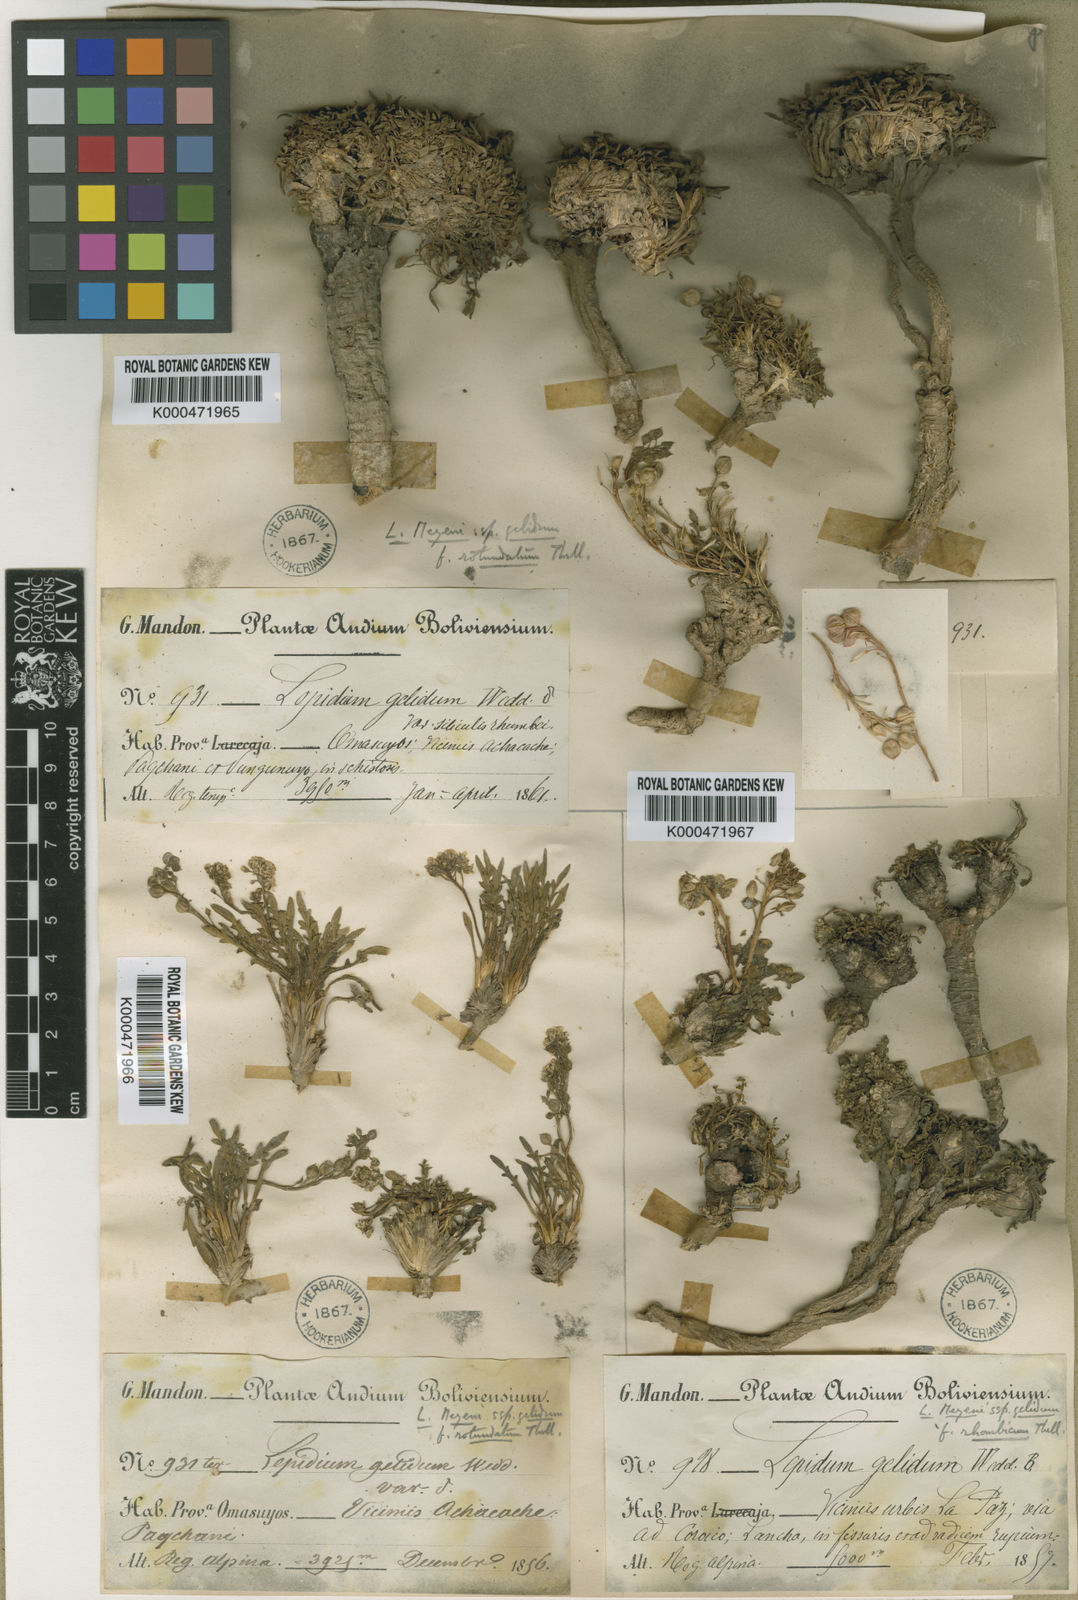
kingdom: Plantae
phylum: Tracheophyta
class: Magnoliopsida
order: Brassicales
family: Brassicaceae
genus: Lepidium
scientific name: Lepidium meyenii
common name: Peruvian-ginseng
